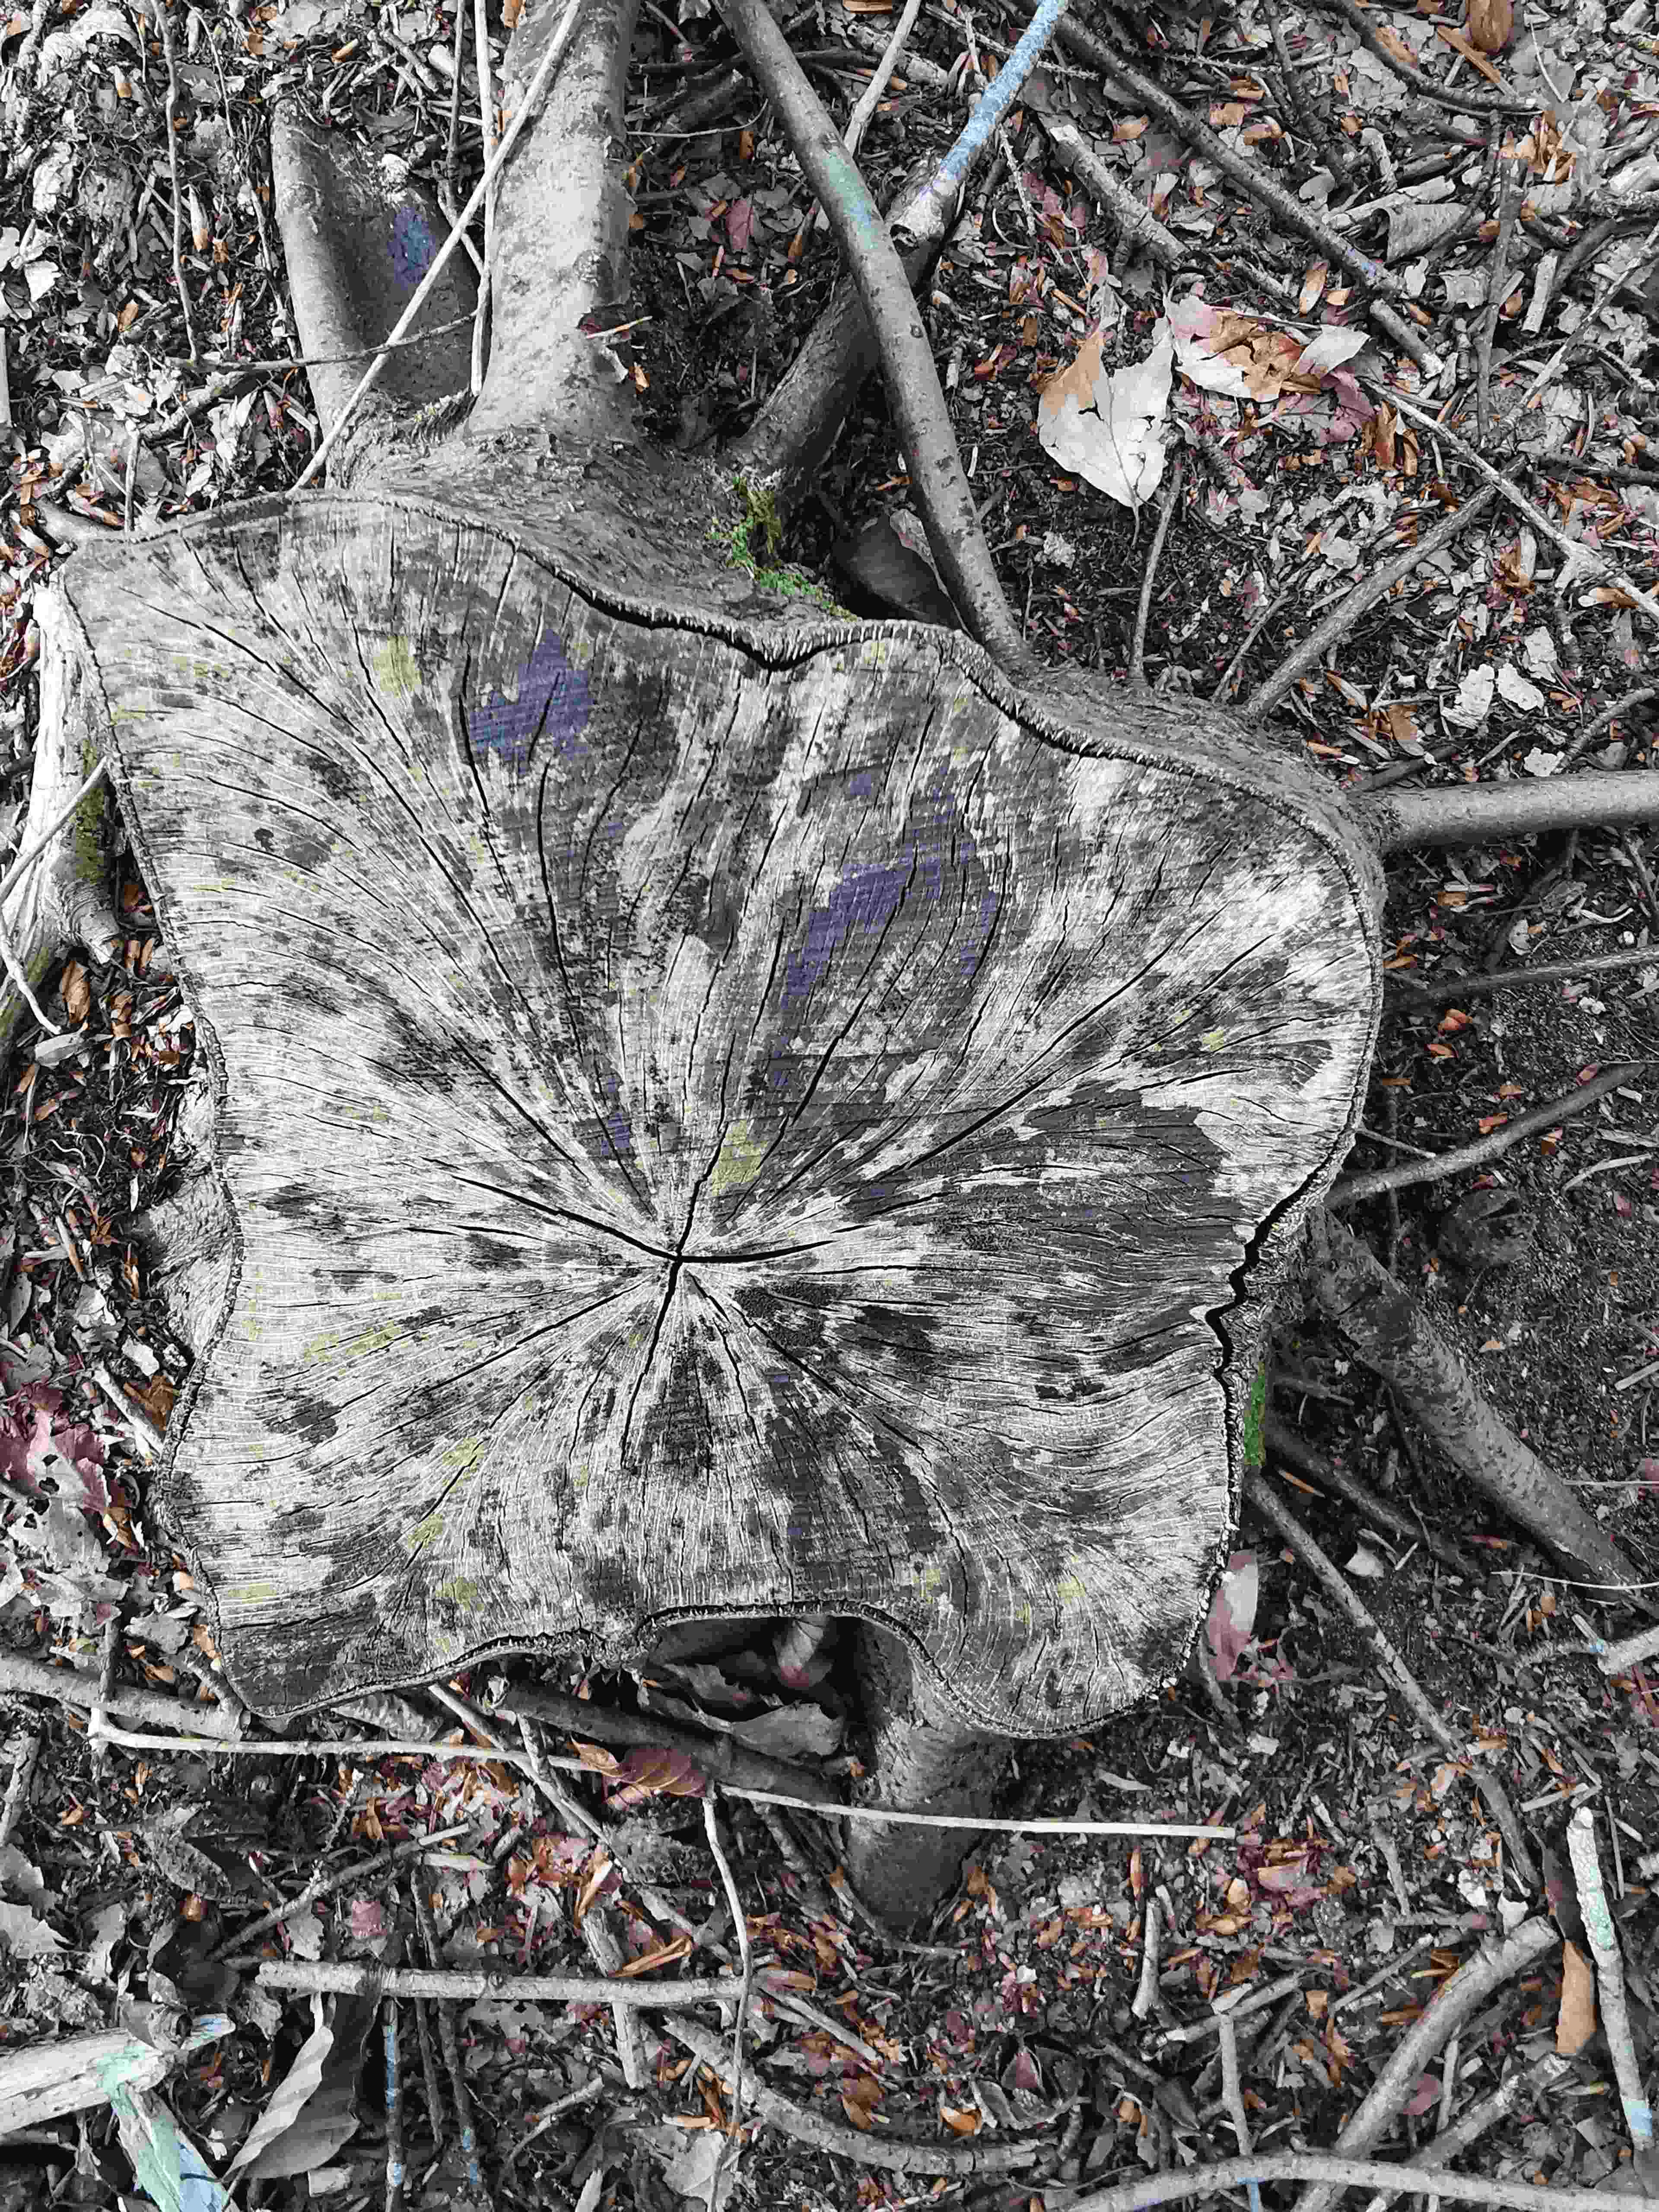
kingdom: Fungi
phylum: Ascomycota
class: Leotiomycetes
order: Helotiales
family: Helotiaceae
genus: Bispora
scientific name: Bispora pallescens
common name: måtte-snitskive
